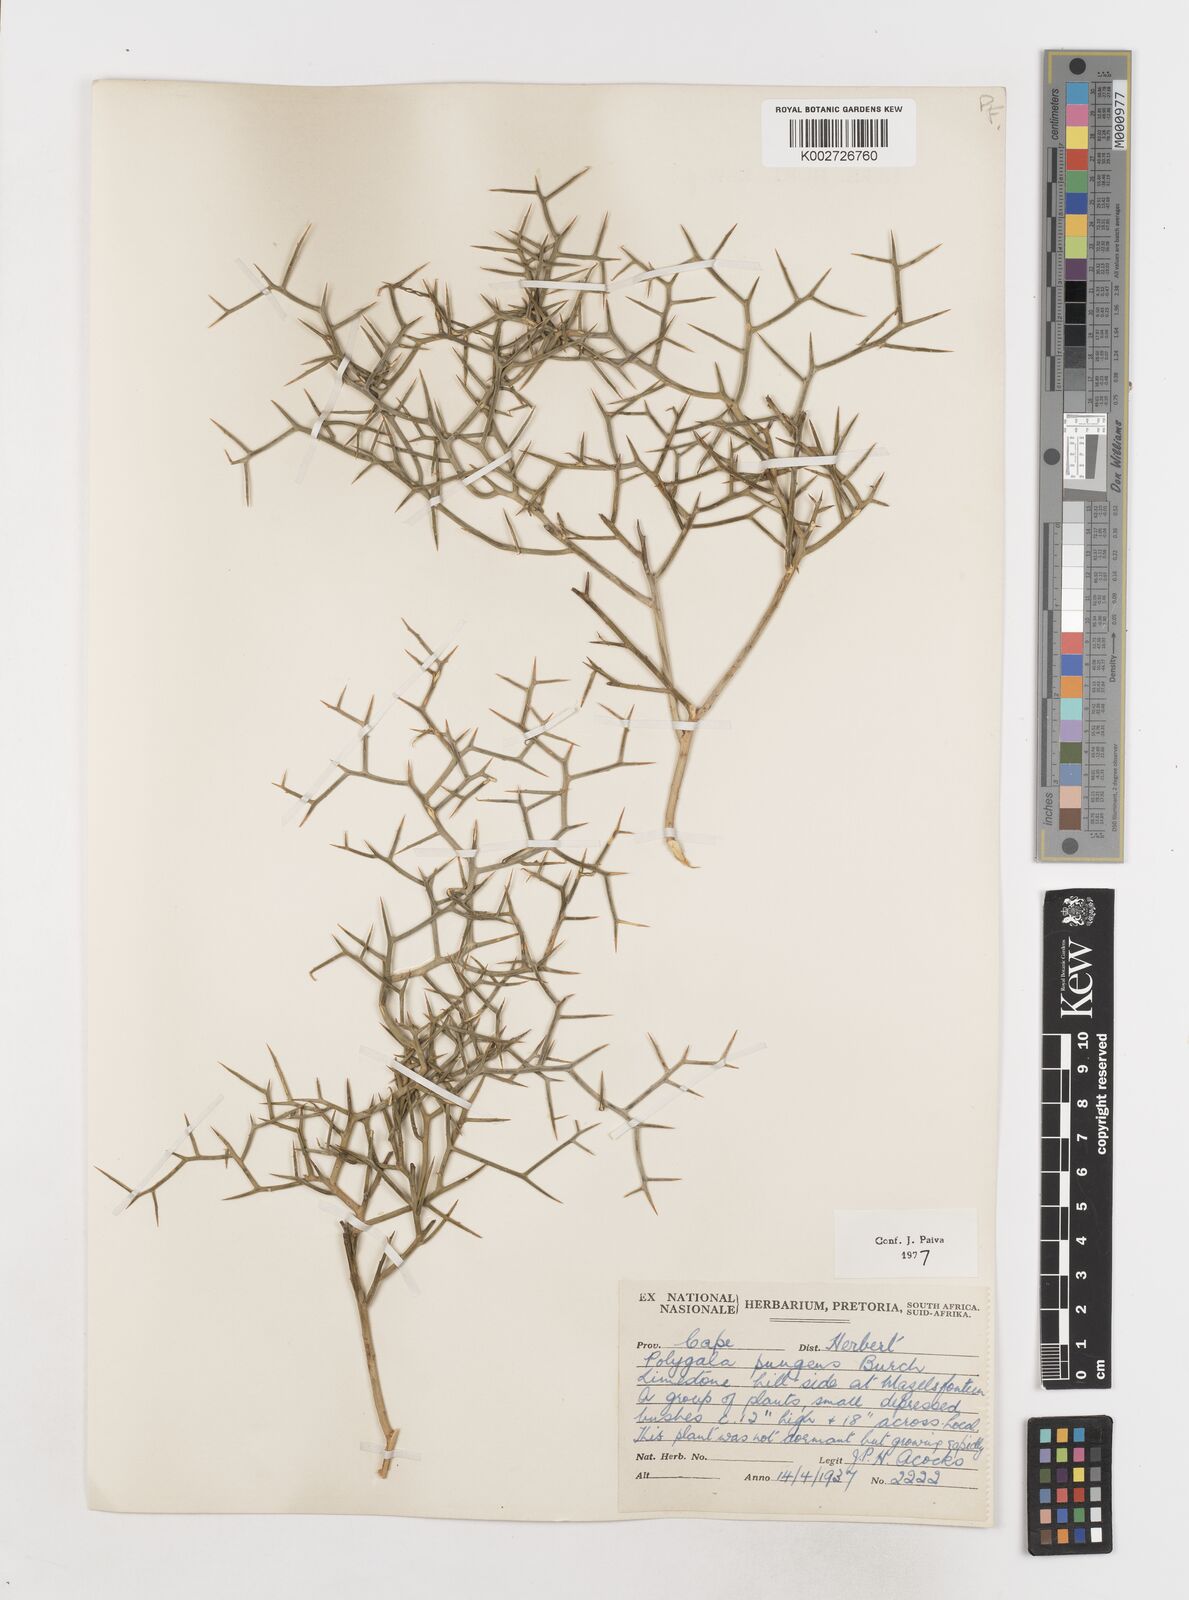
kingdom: Plantae
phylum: Tracheophyta
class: Magnoliopsida
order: Fabales
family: Polygalaceae
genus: Polygala
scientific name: Polygala pungens
